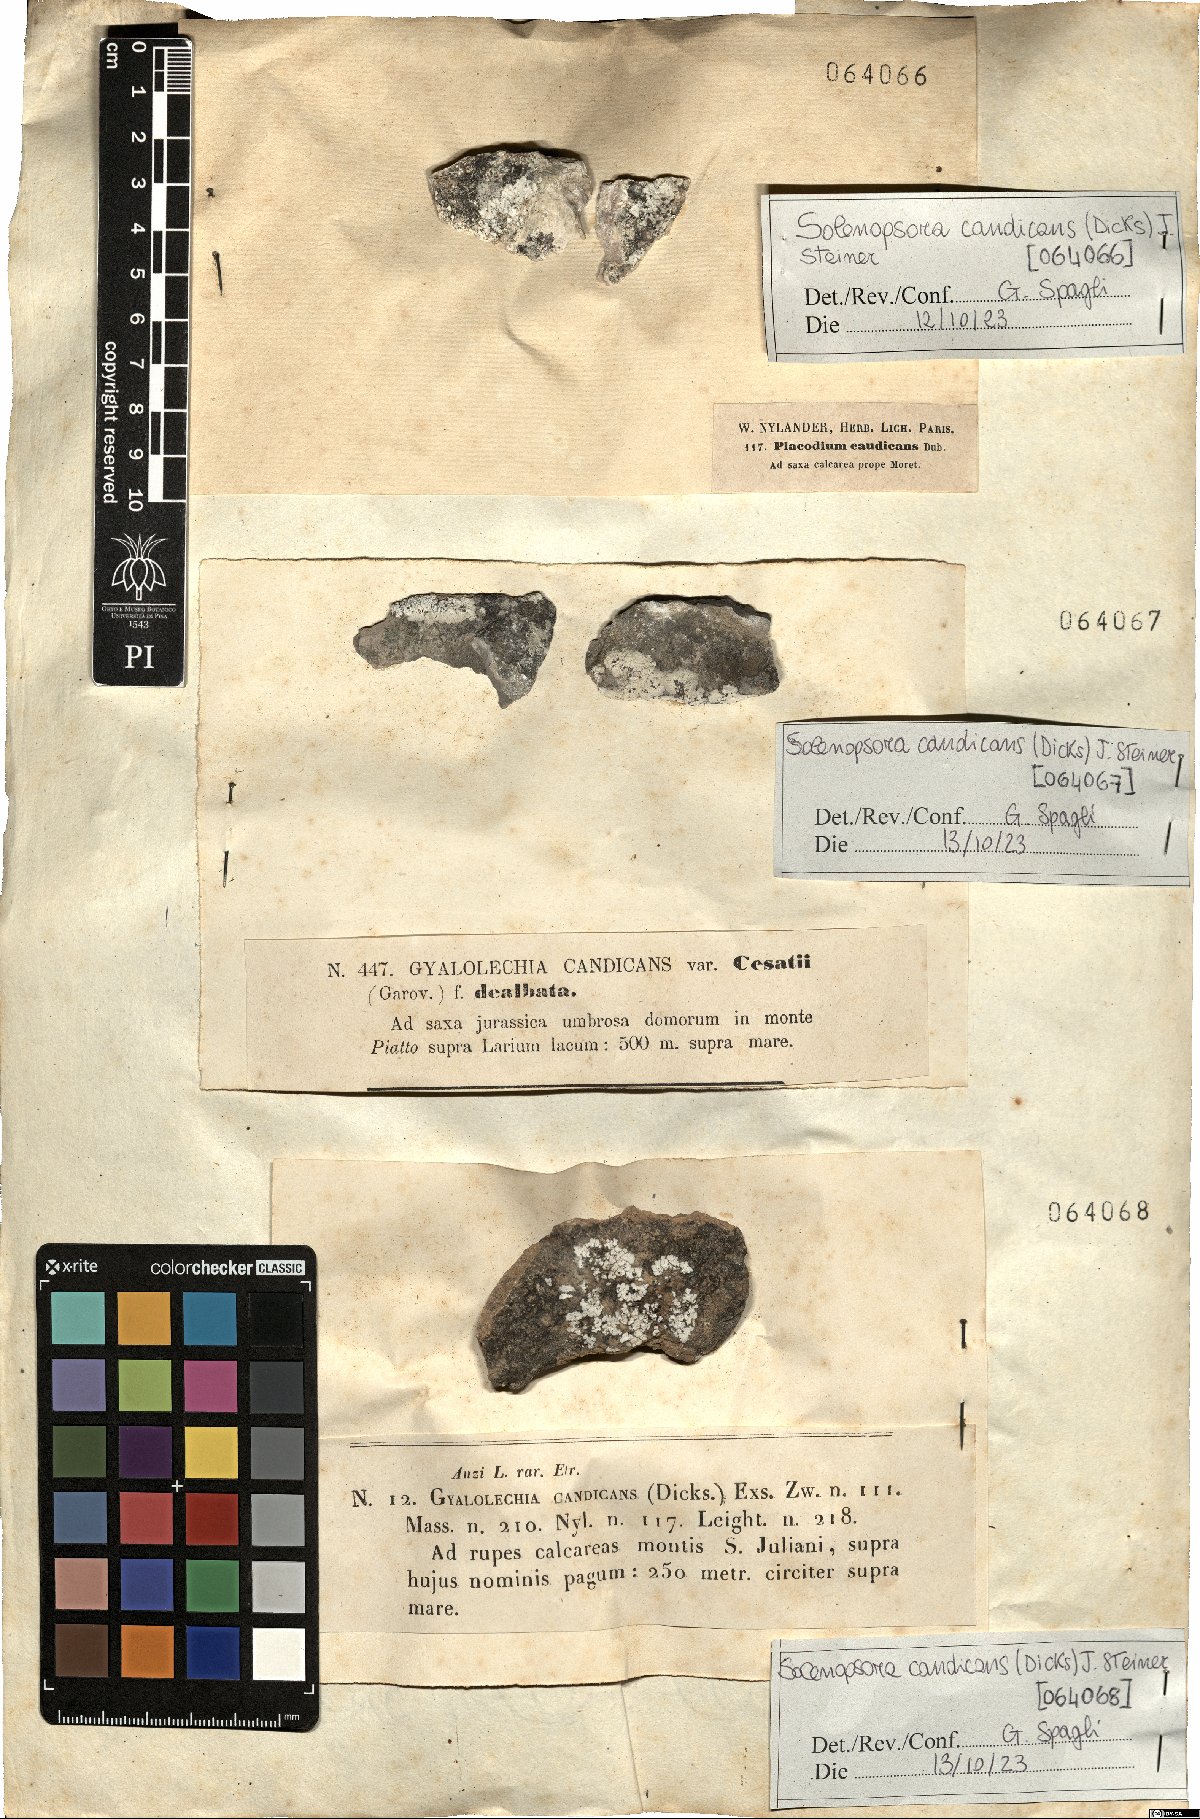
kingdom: Fungi
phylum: Ascomycota
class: Lecanoromycetes
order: Lecanorales
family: Catillariaceae
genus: Solenopsora
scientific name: Solenopsora candicans
